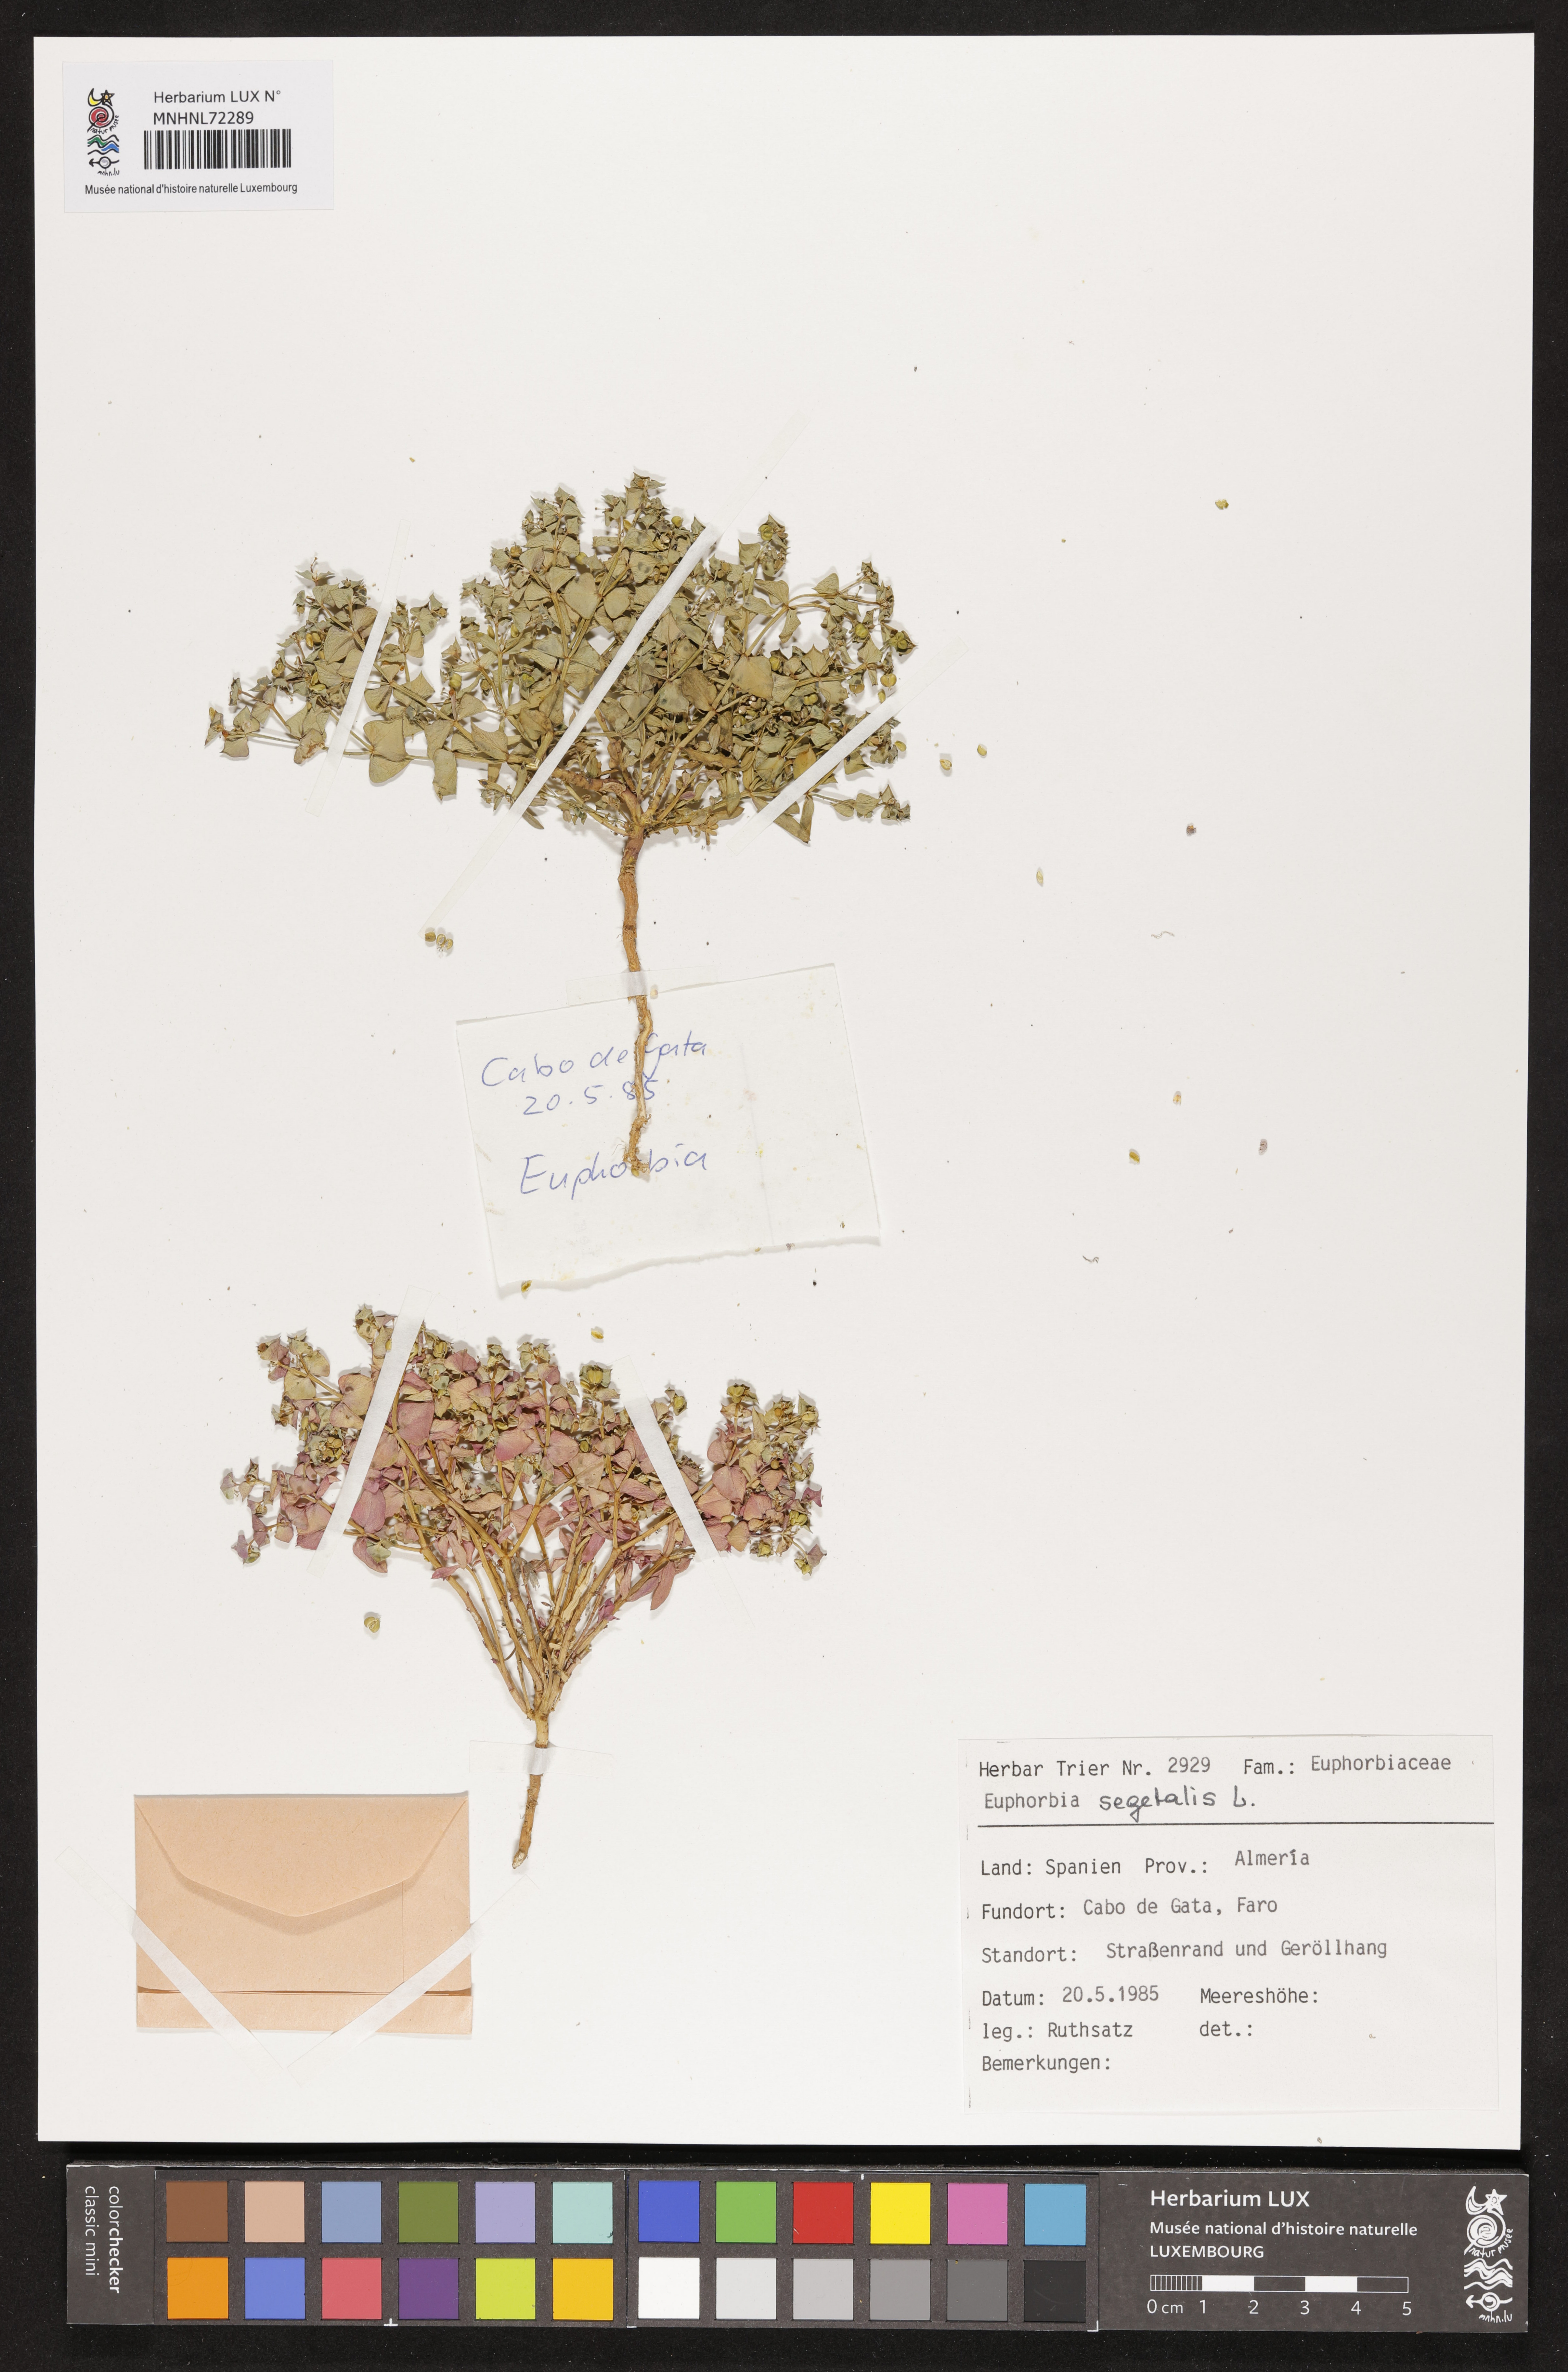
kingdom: Plantae
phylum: Tracheophyta
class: Magnoliopsida
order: Malpighiales
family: Euphorbiaceae
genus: Euphorbia
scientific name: Euphorbia segetalis
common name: Corn spurge
